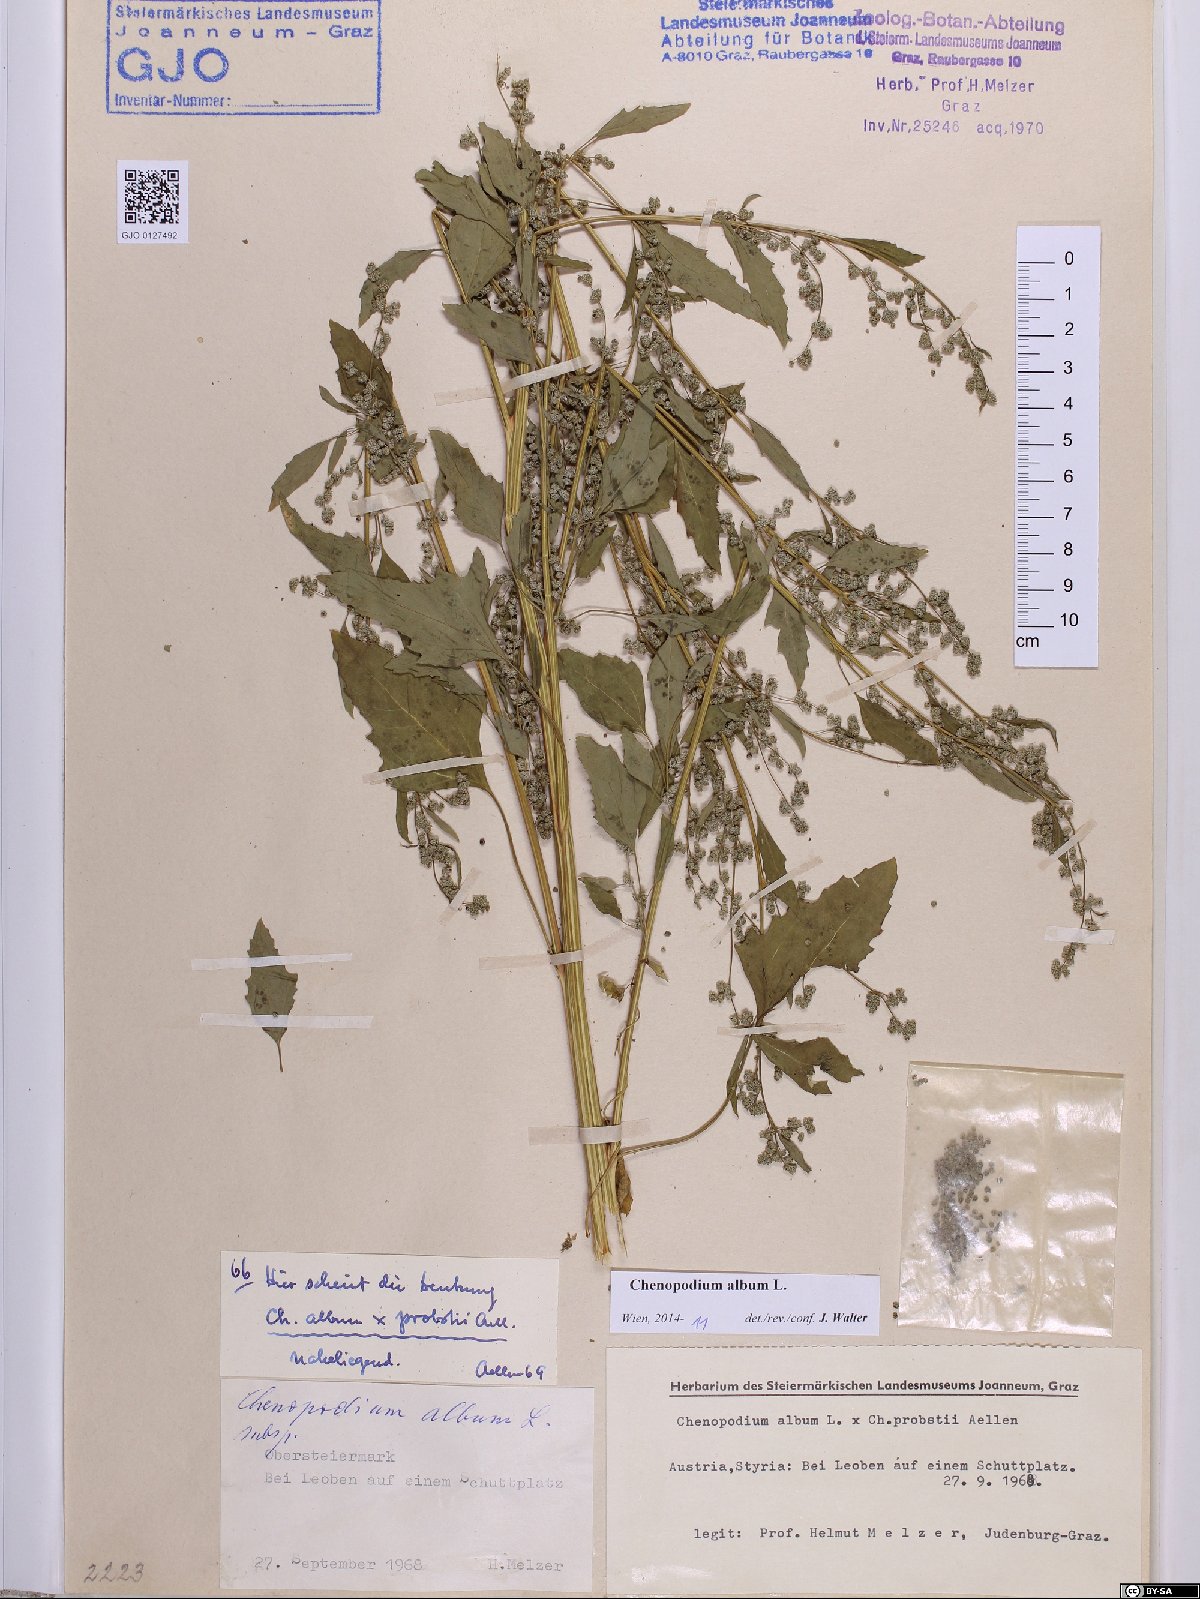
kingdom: Plantae
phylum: Tracheophyta
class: Magnoliopsida
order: Caryophyllales
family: Amaranthaceae
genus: Chenopodium
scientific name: Chenopodium album
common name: Fat-hen
